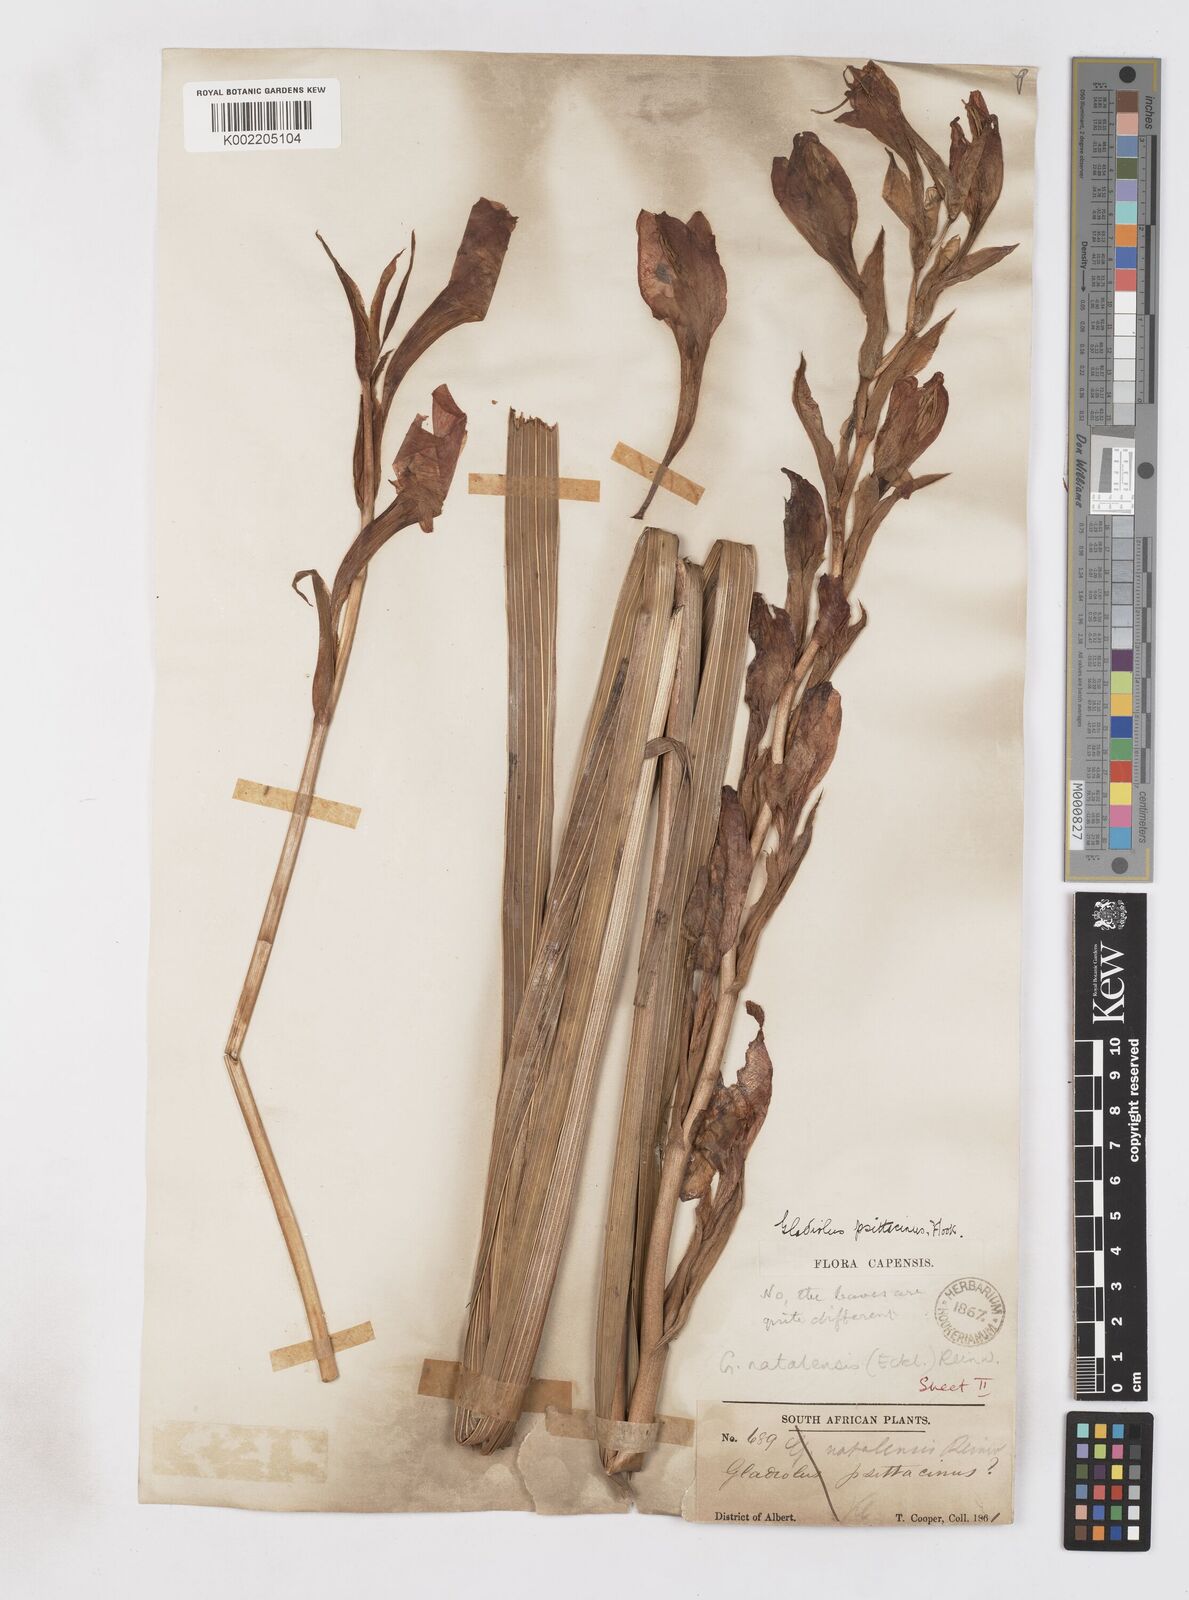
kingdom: Plantae
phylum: Tracheophyta
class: Liliopsida
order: Asparagales
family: Iridaceae
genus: Gladiolus
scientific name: Gladiolus dalenii
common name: Cornflag
